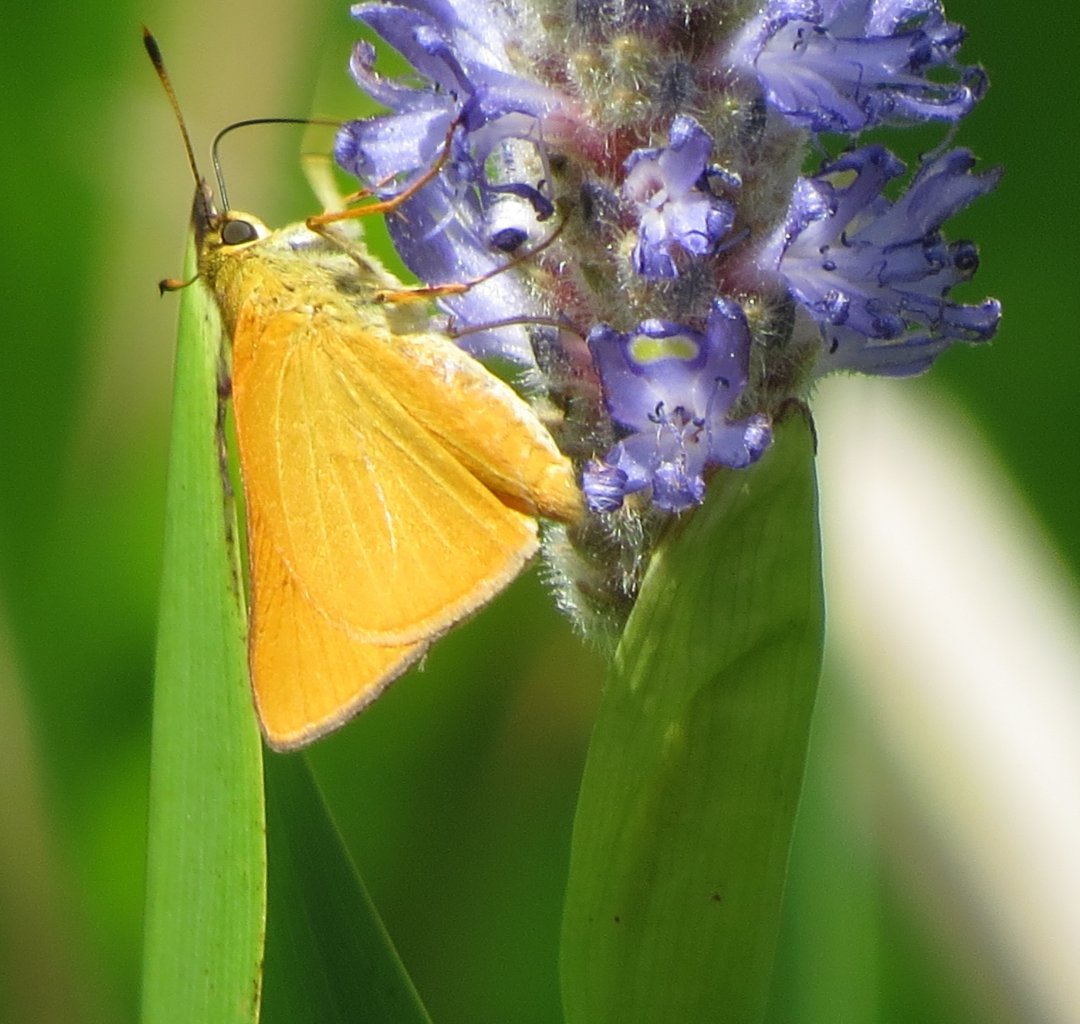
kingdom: Animalia
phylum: Arthropoda
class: Insecta
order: Lepidoptera
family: Hesperiidae
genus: Problema
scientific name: Problema bulenta
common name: Rare Skipper
